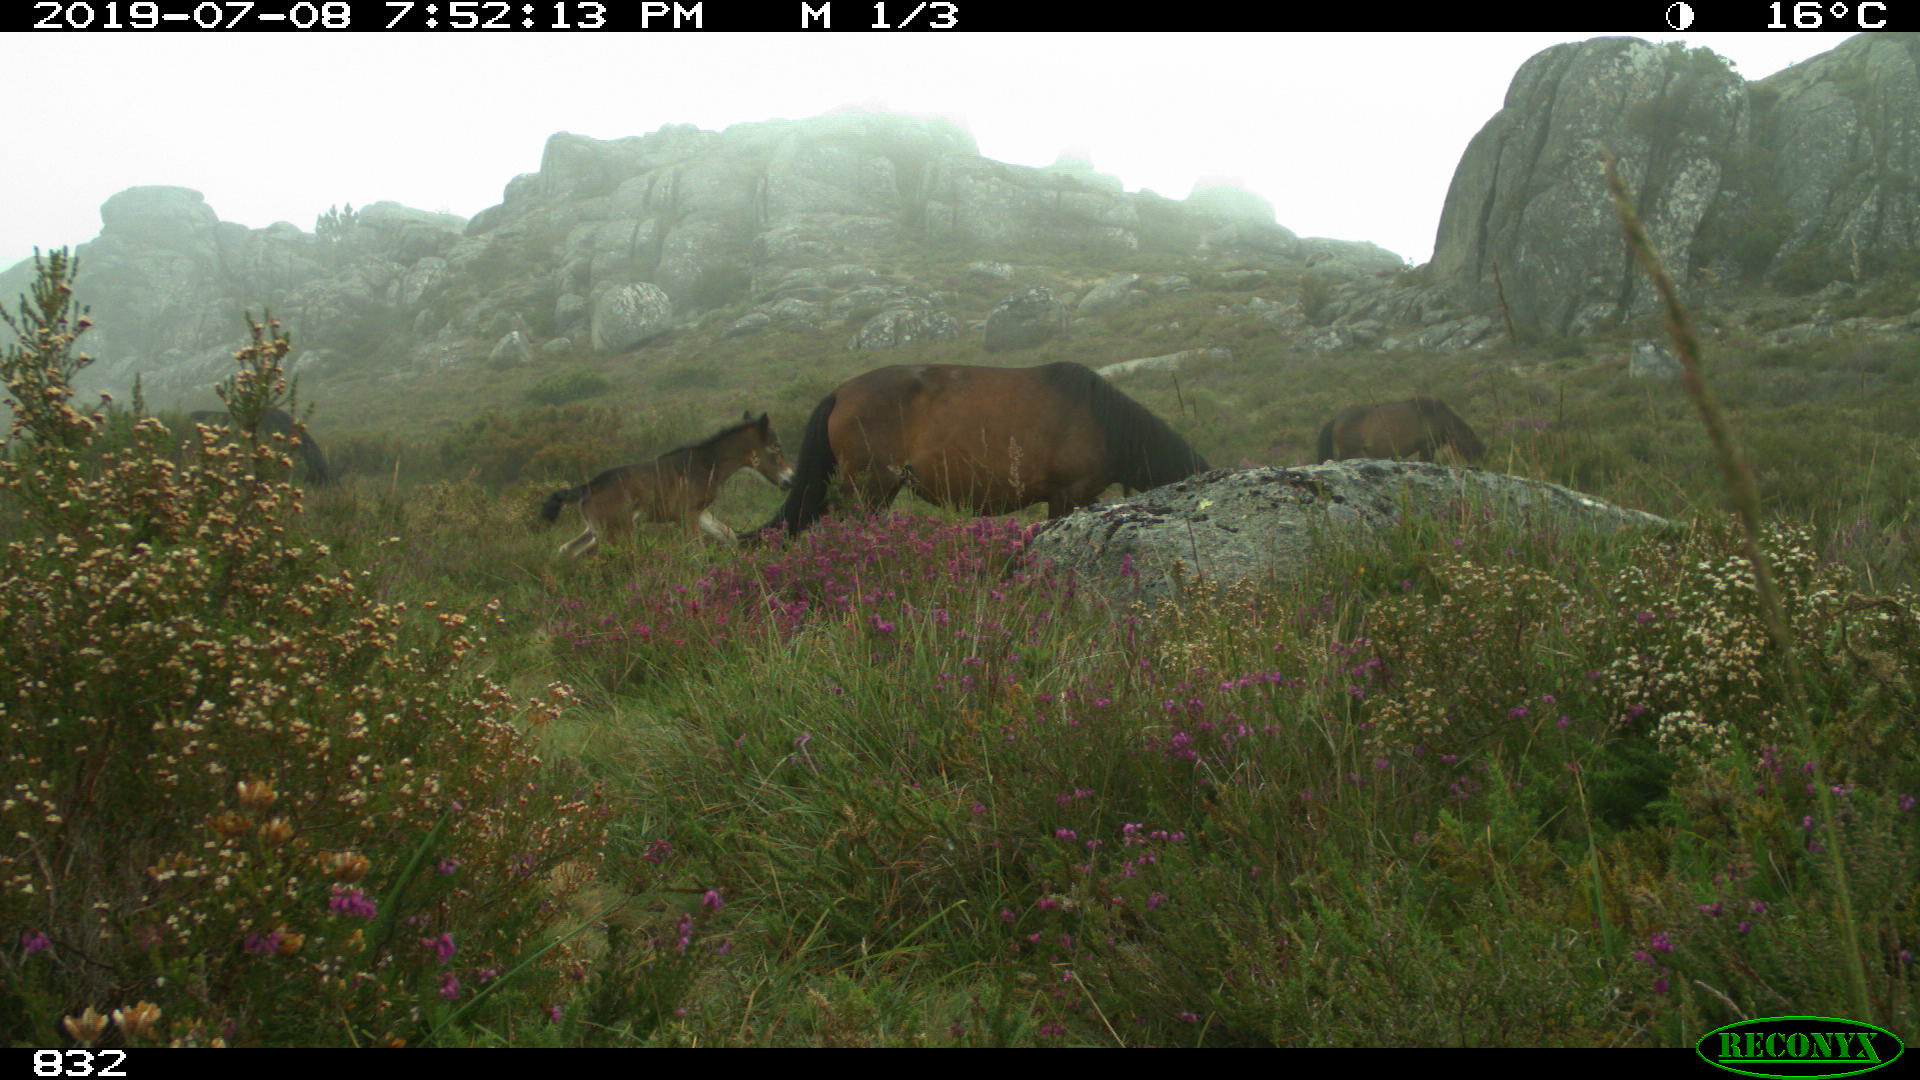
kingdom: Animalia
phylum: Chordata
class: Mammalia
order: Perissodactyla
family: Equidae
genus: Equus
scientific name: Equus caballus
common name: Horse
